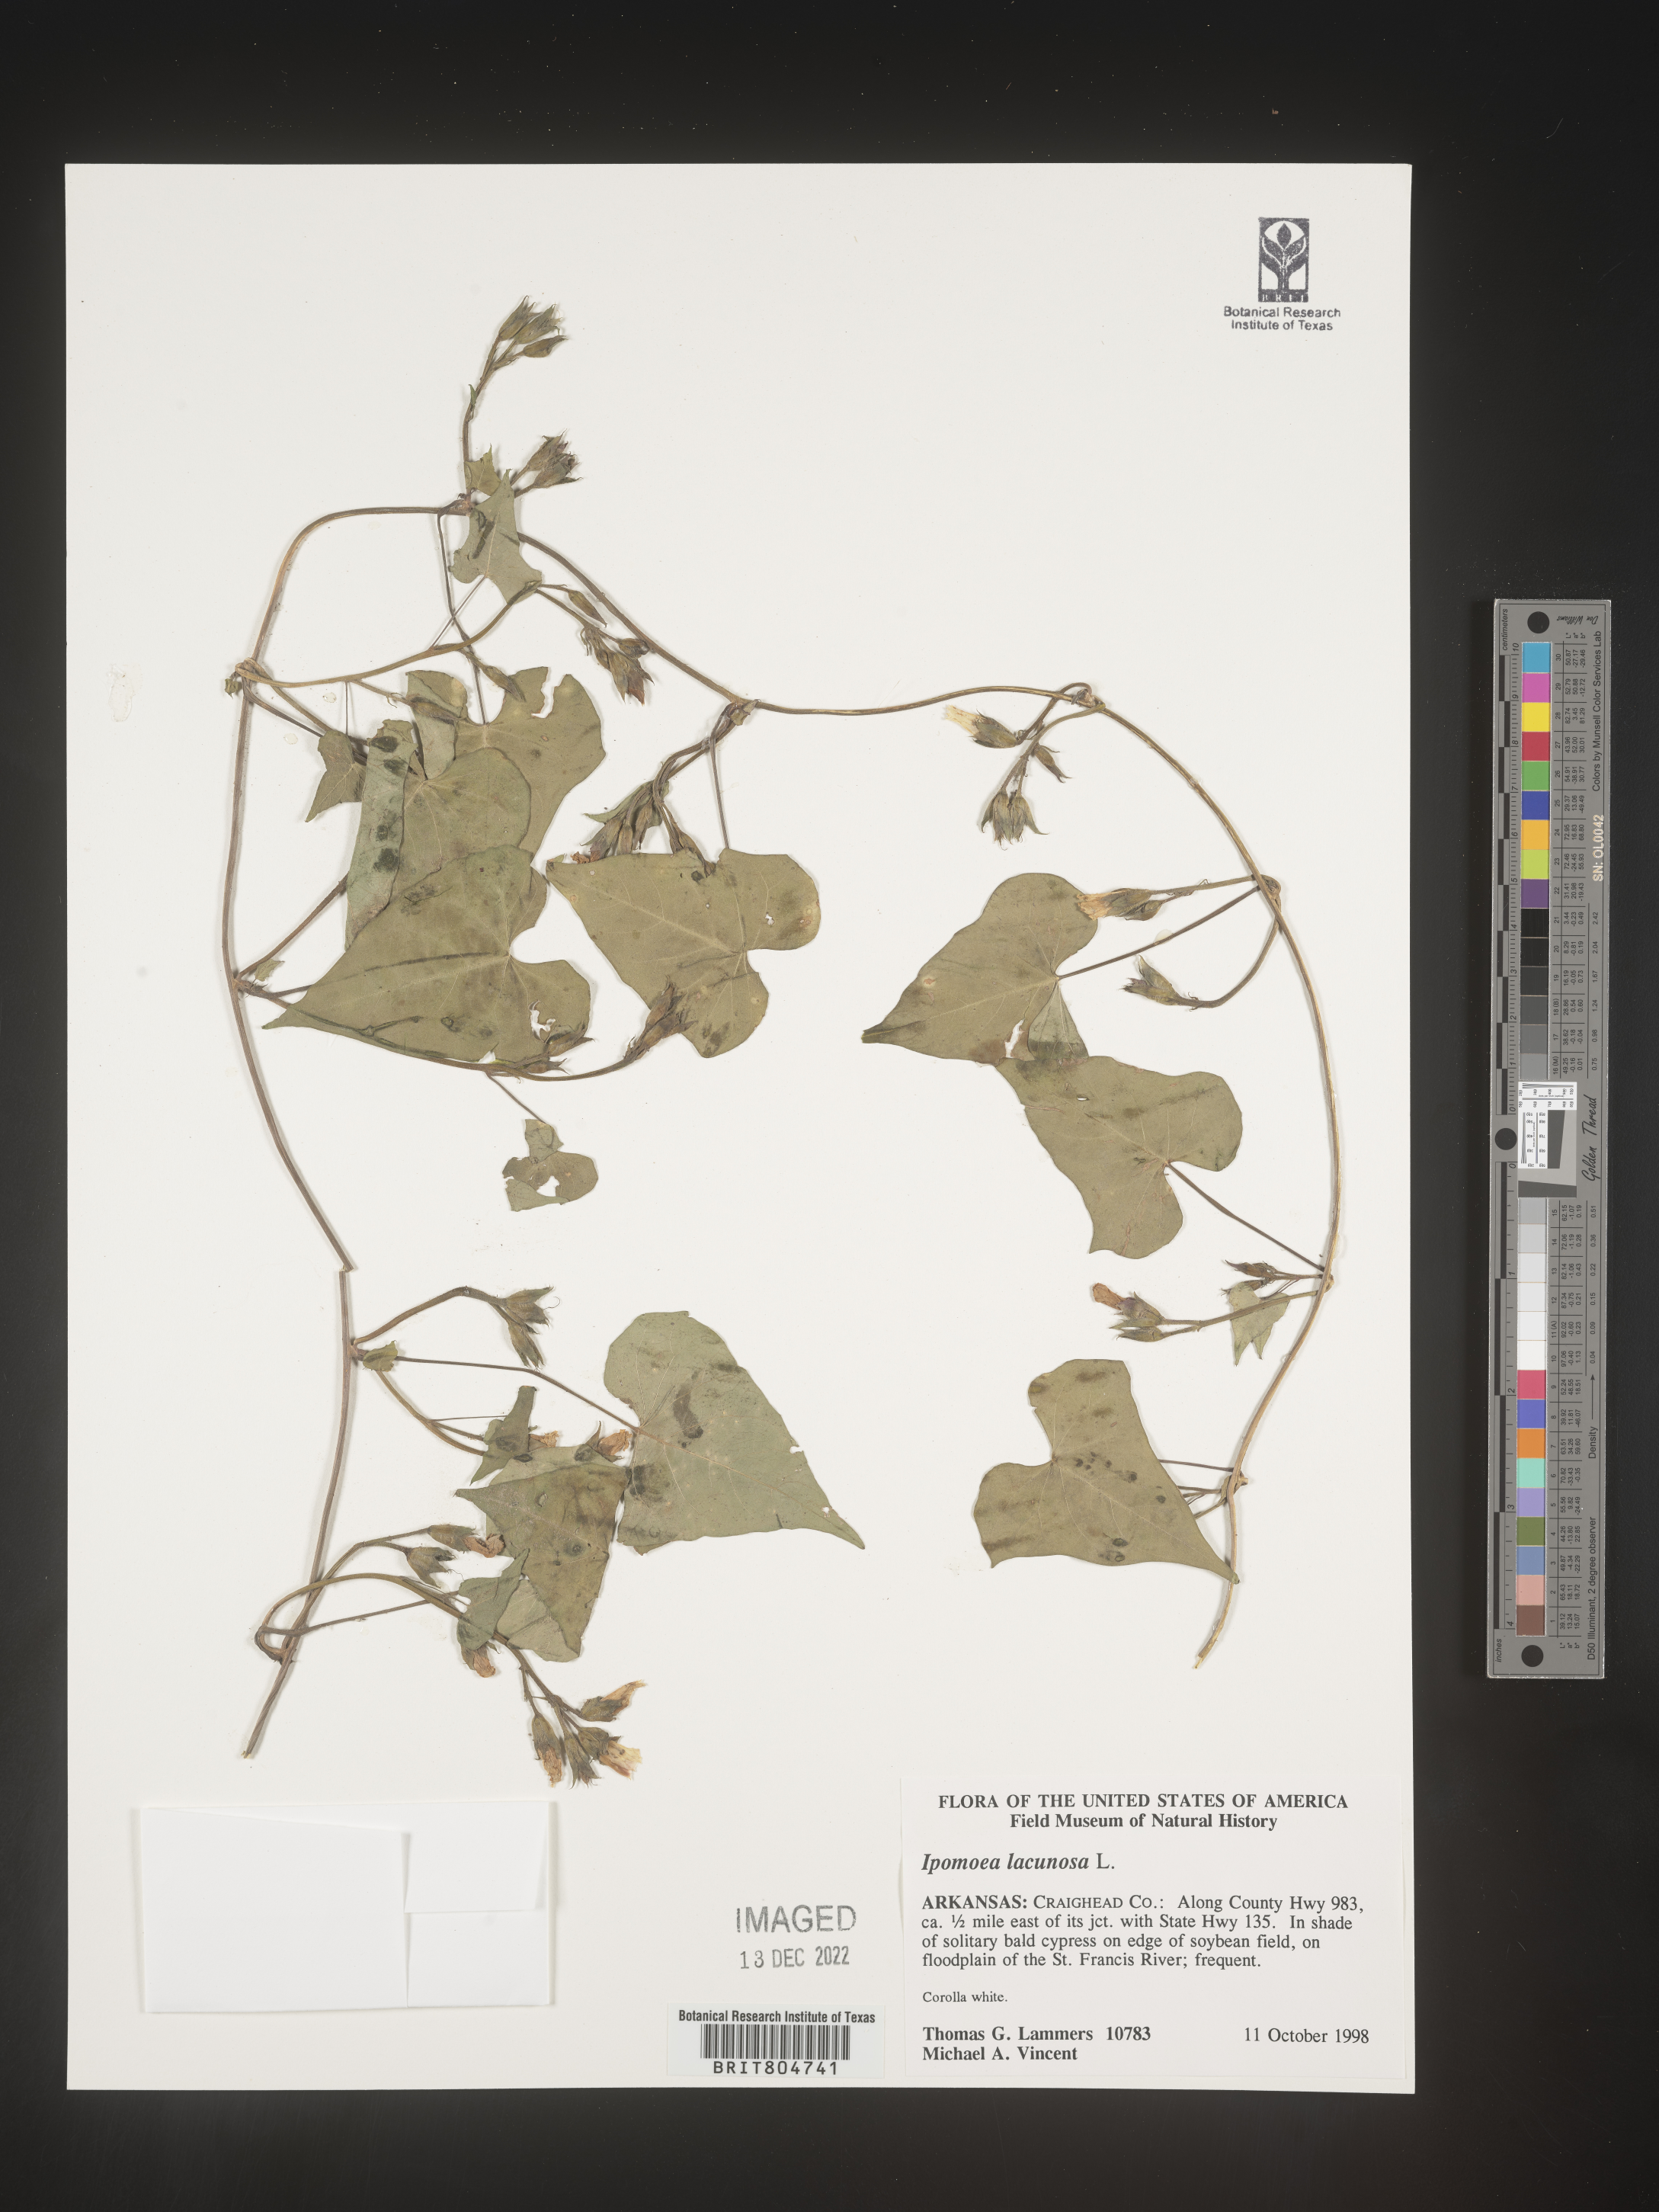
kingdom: Plantae
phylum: Tracheophyta
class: Magnoliopsida
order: Solanales
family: Convolvulaceae
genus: Ipomoea
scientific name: Ipomoea lacunosa
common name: White morning-glory
